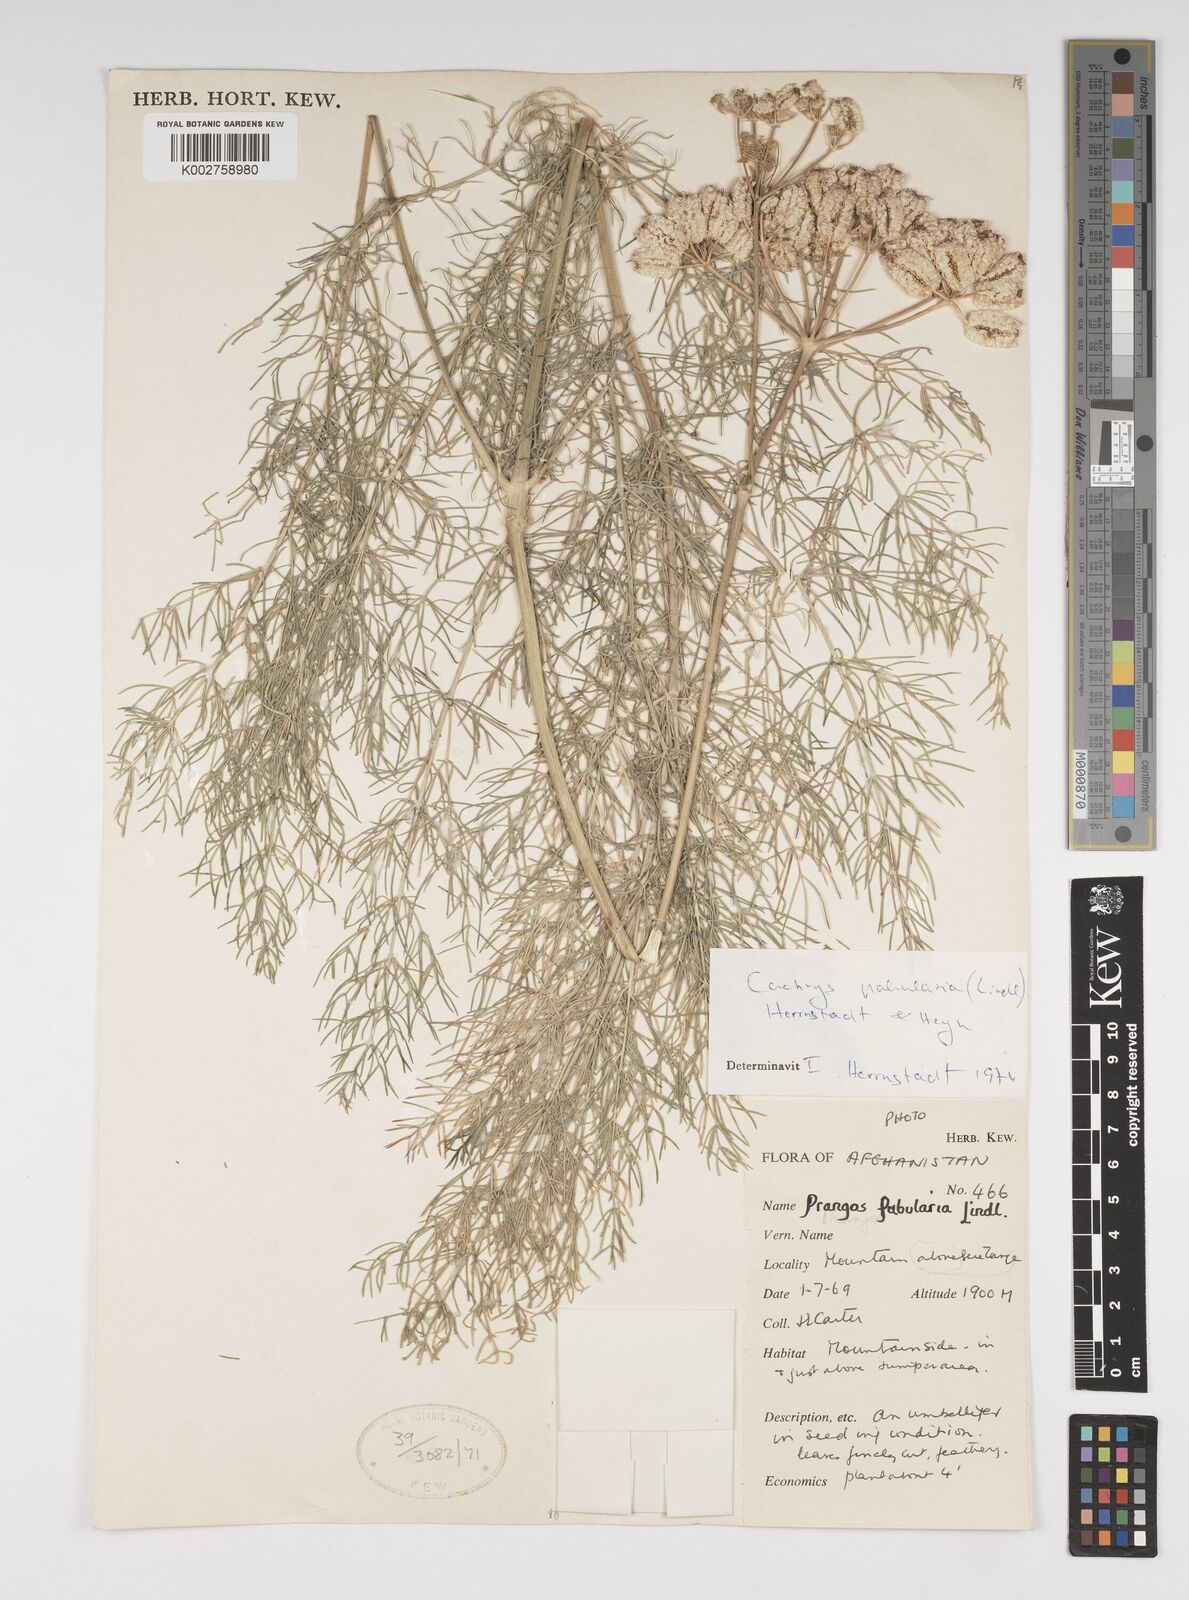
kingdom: Plantae
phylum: Tracheophyta
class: Magnoliopsida
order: Apiales
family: Apiaceae
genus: Prangos
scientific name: Prangos pabularia
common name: Yugan
